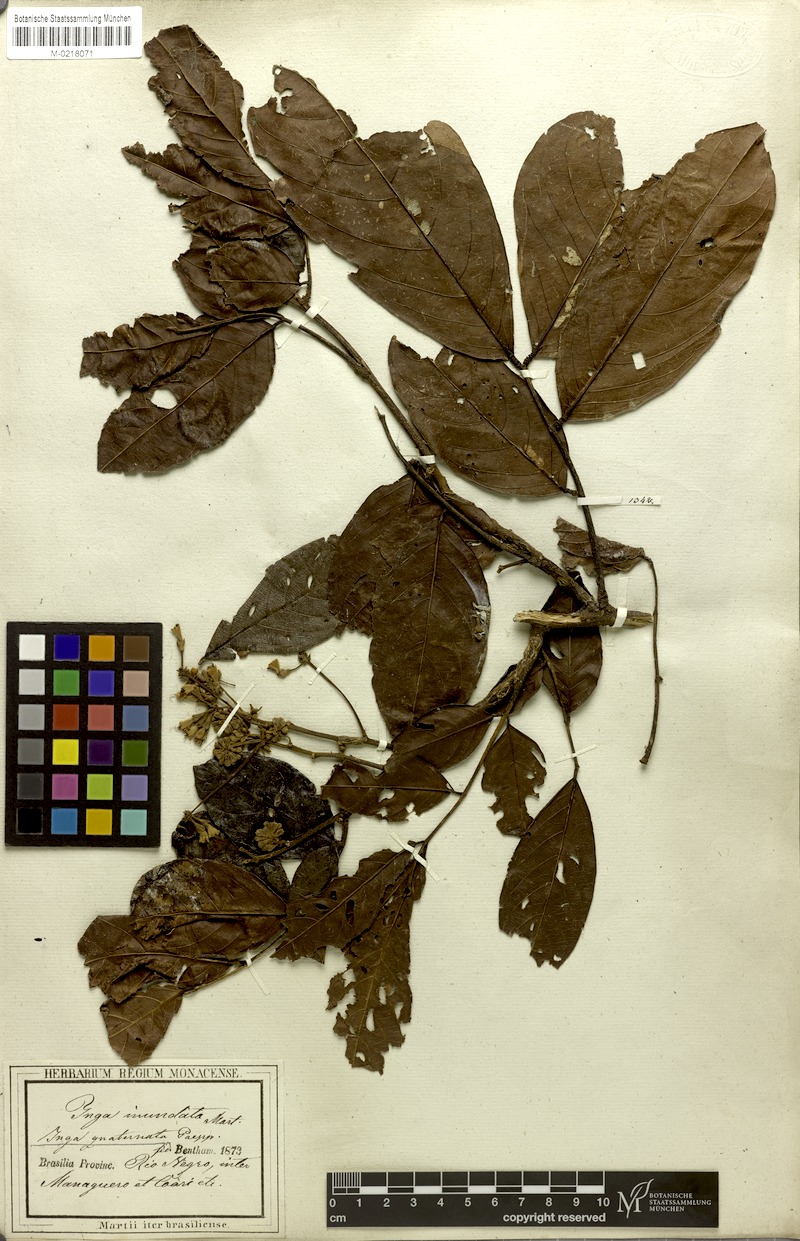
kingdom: Plantae
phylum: Tracheophyta
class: Magnoliopsida
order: Fabales
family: Fabaceae
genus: Inga
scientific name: Inga nobilis
